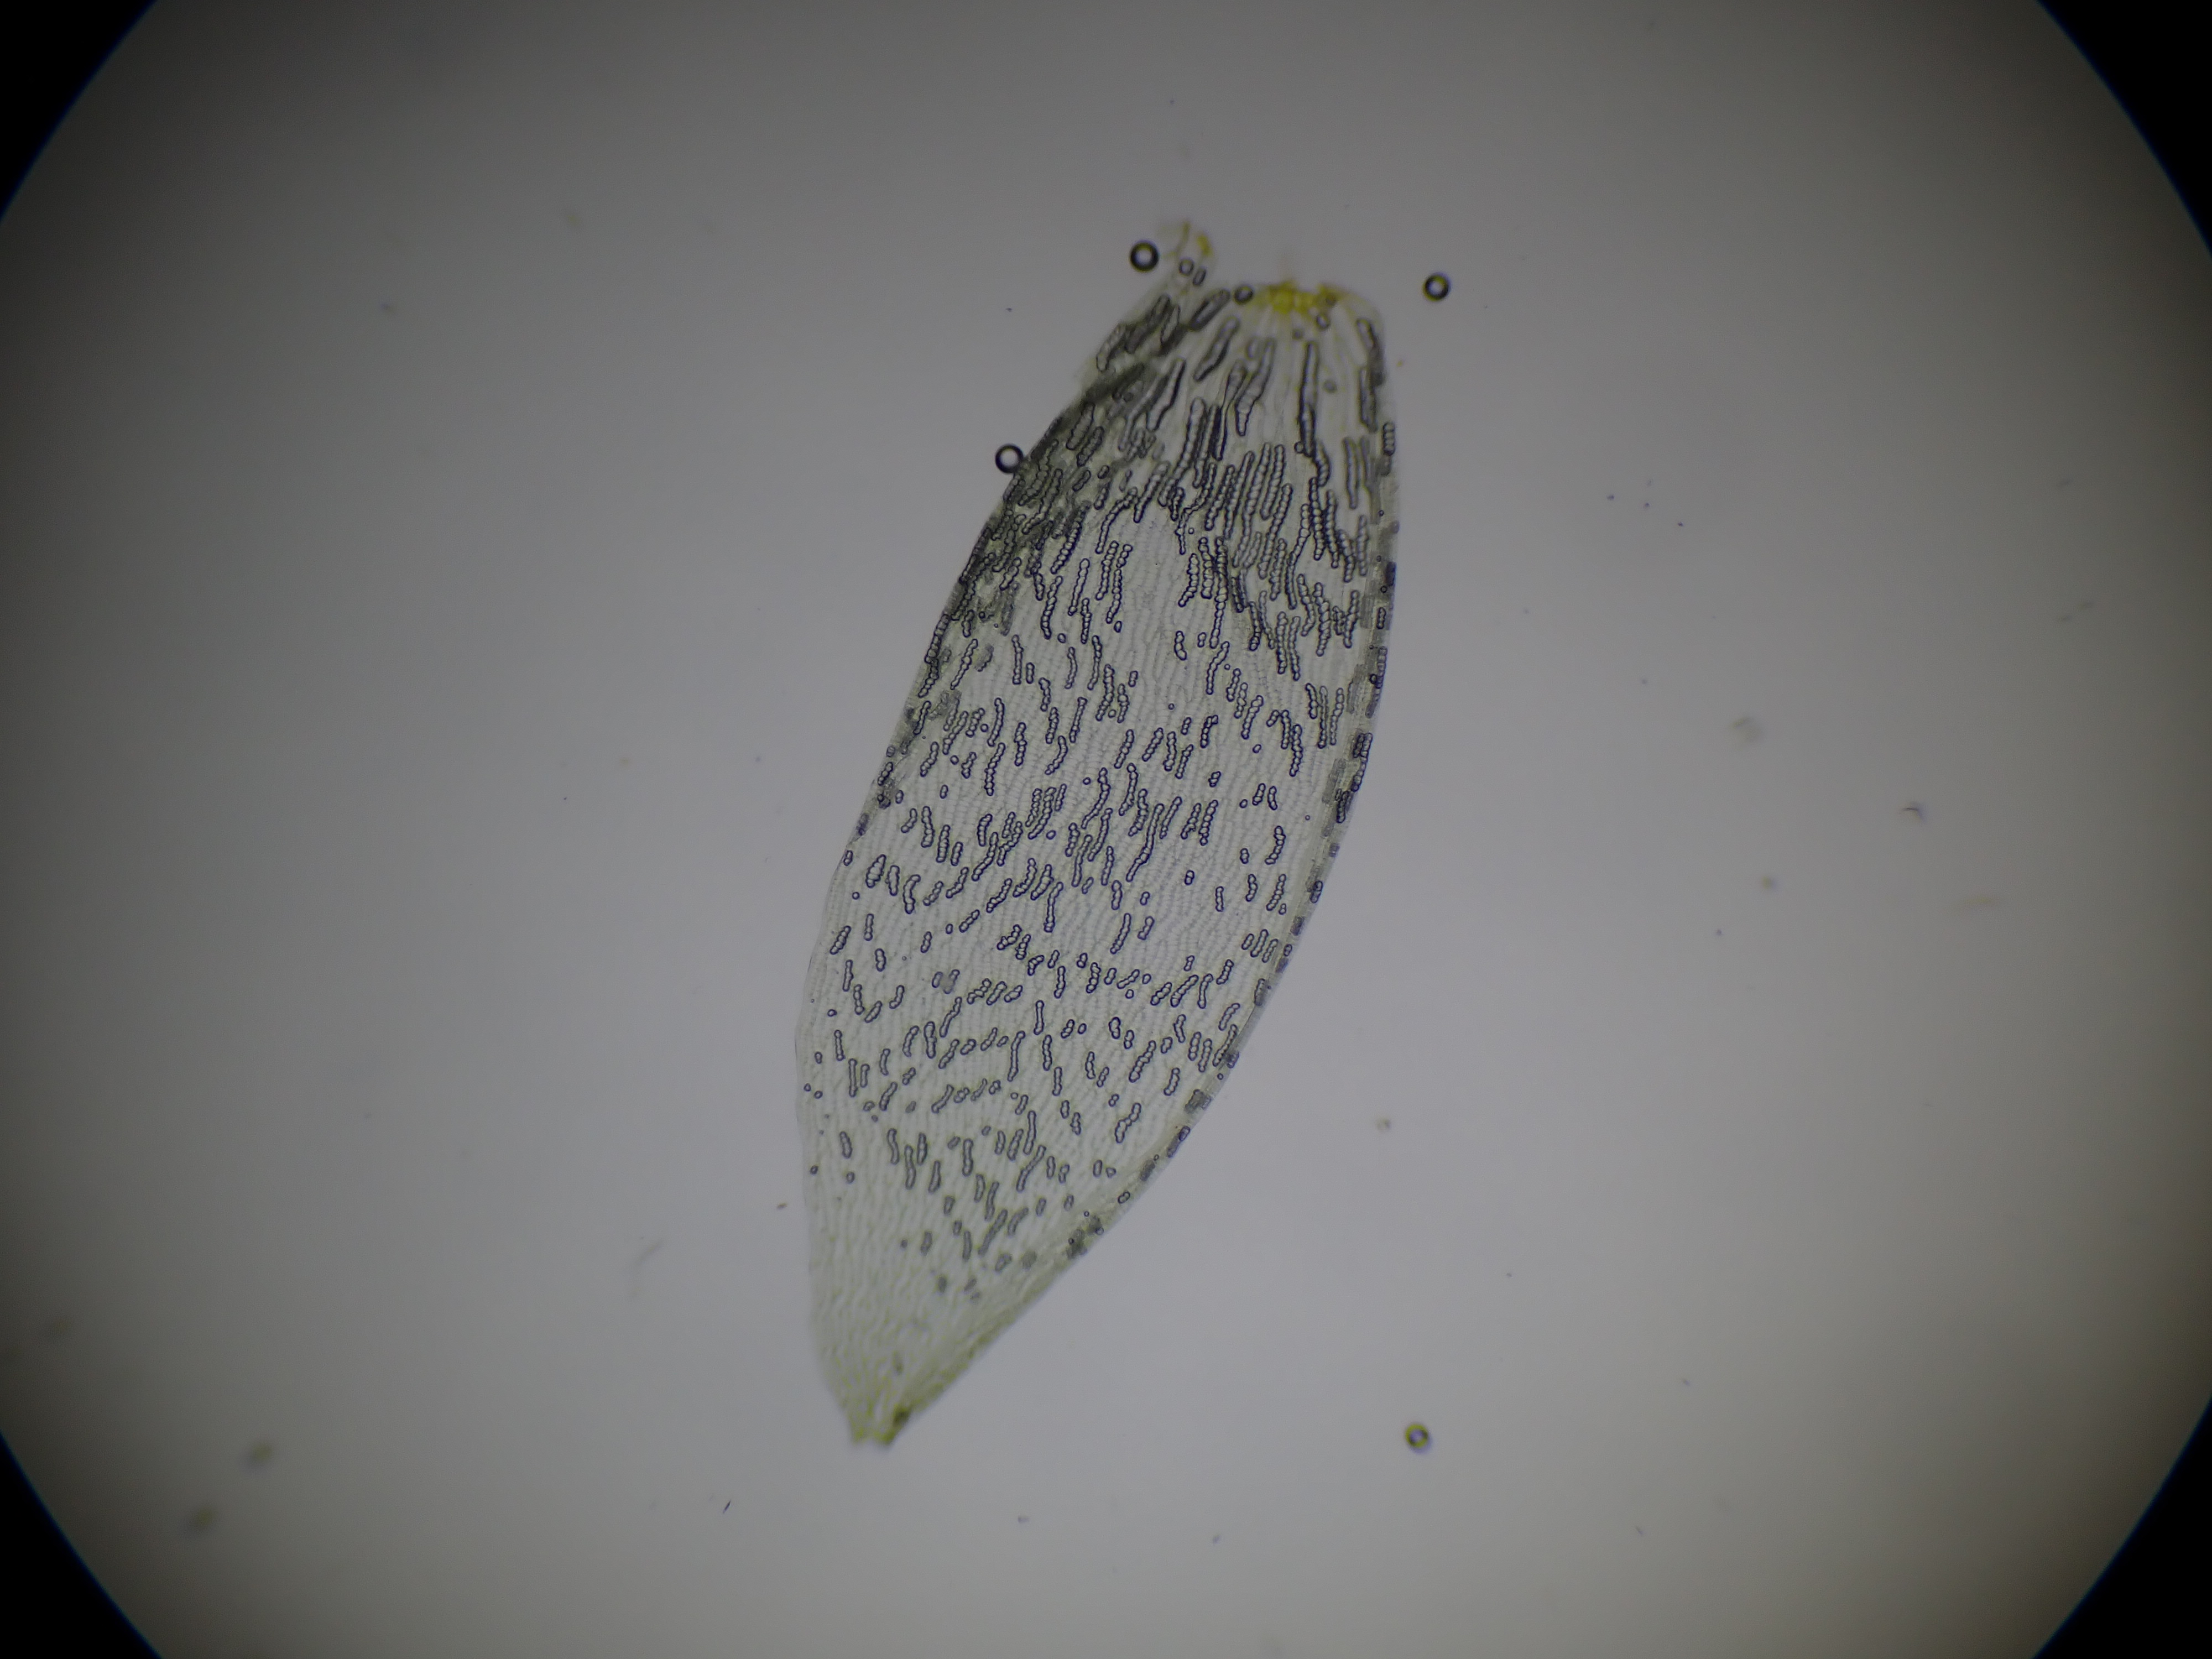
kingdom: Plantae
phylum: Bryophyta
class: Sphagnopsida
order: Sphagnales
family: Sphagnaceae
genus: Sphagnum
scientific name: Sphagnum denticulatum
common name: Rødbrun tørvemos
